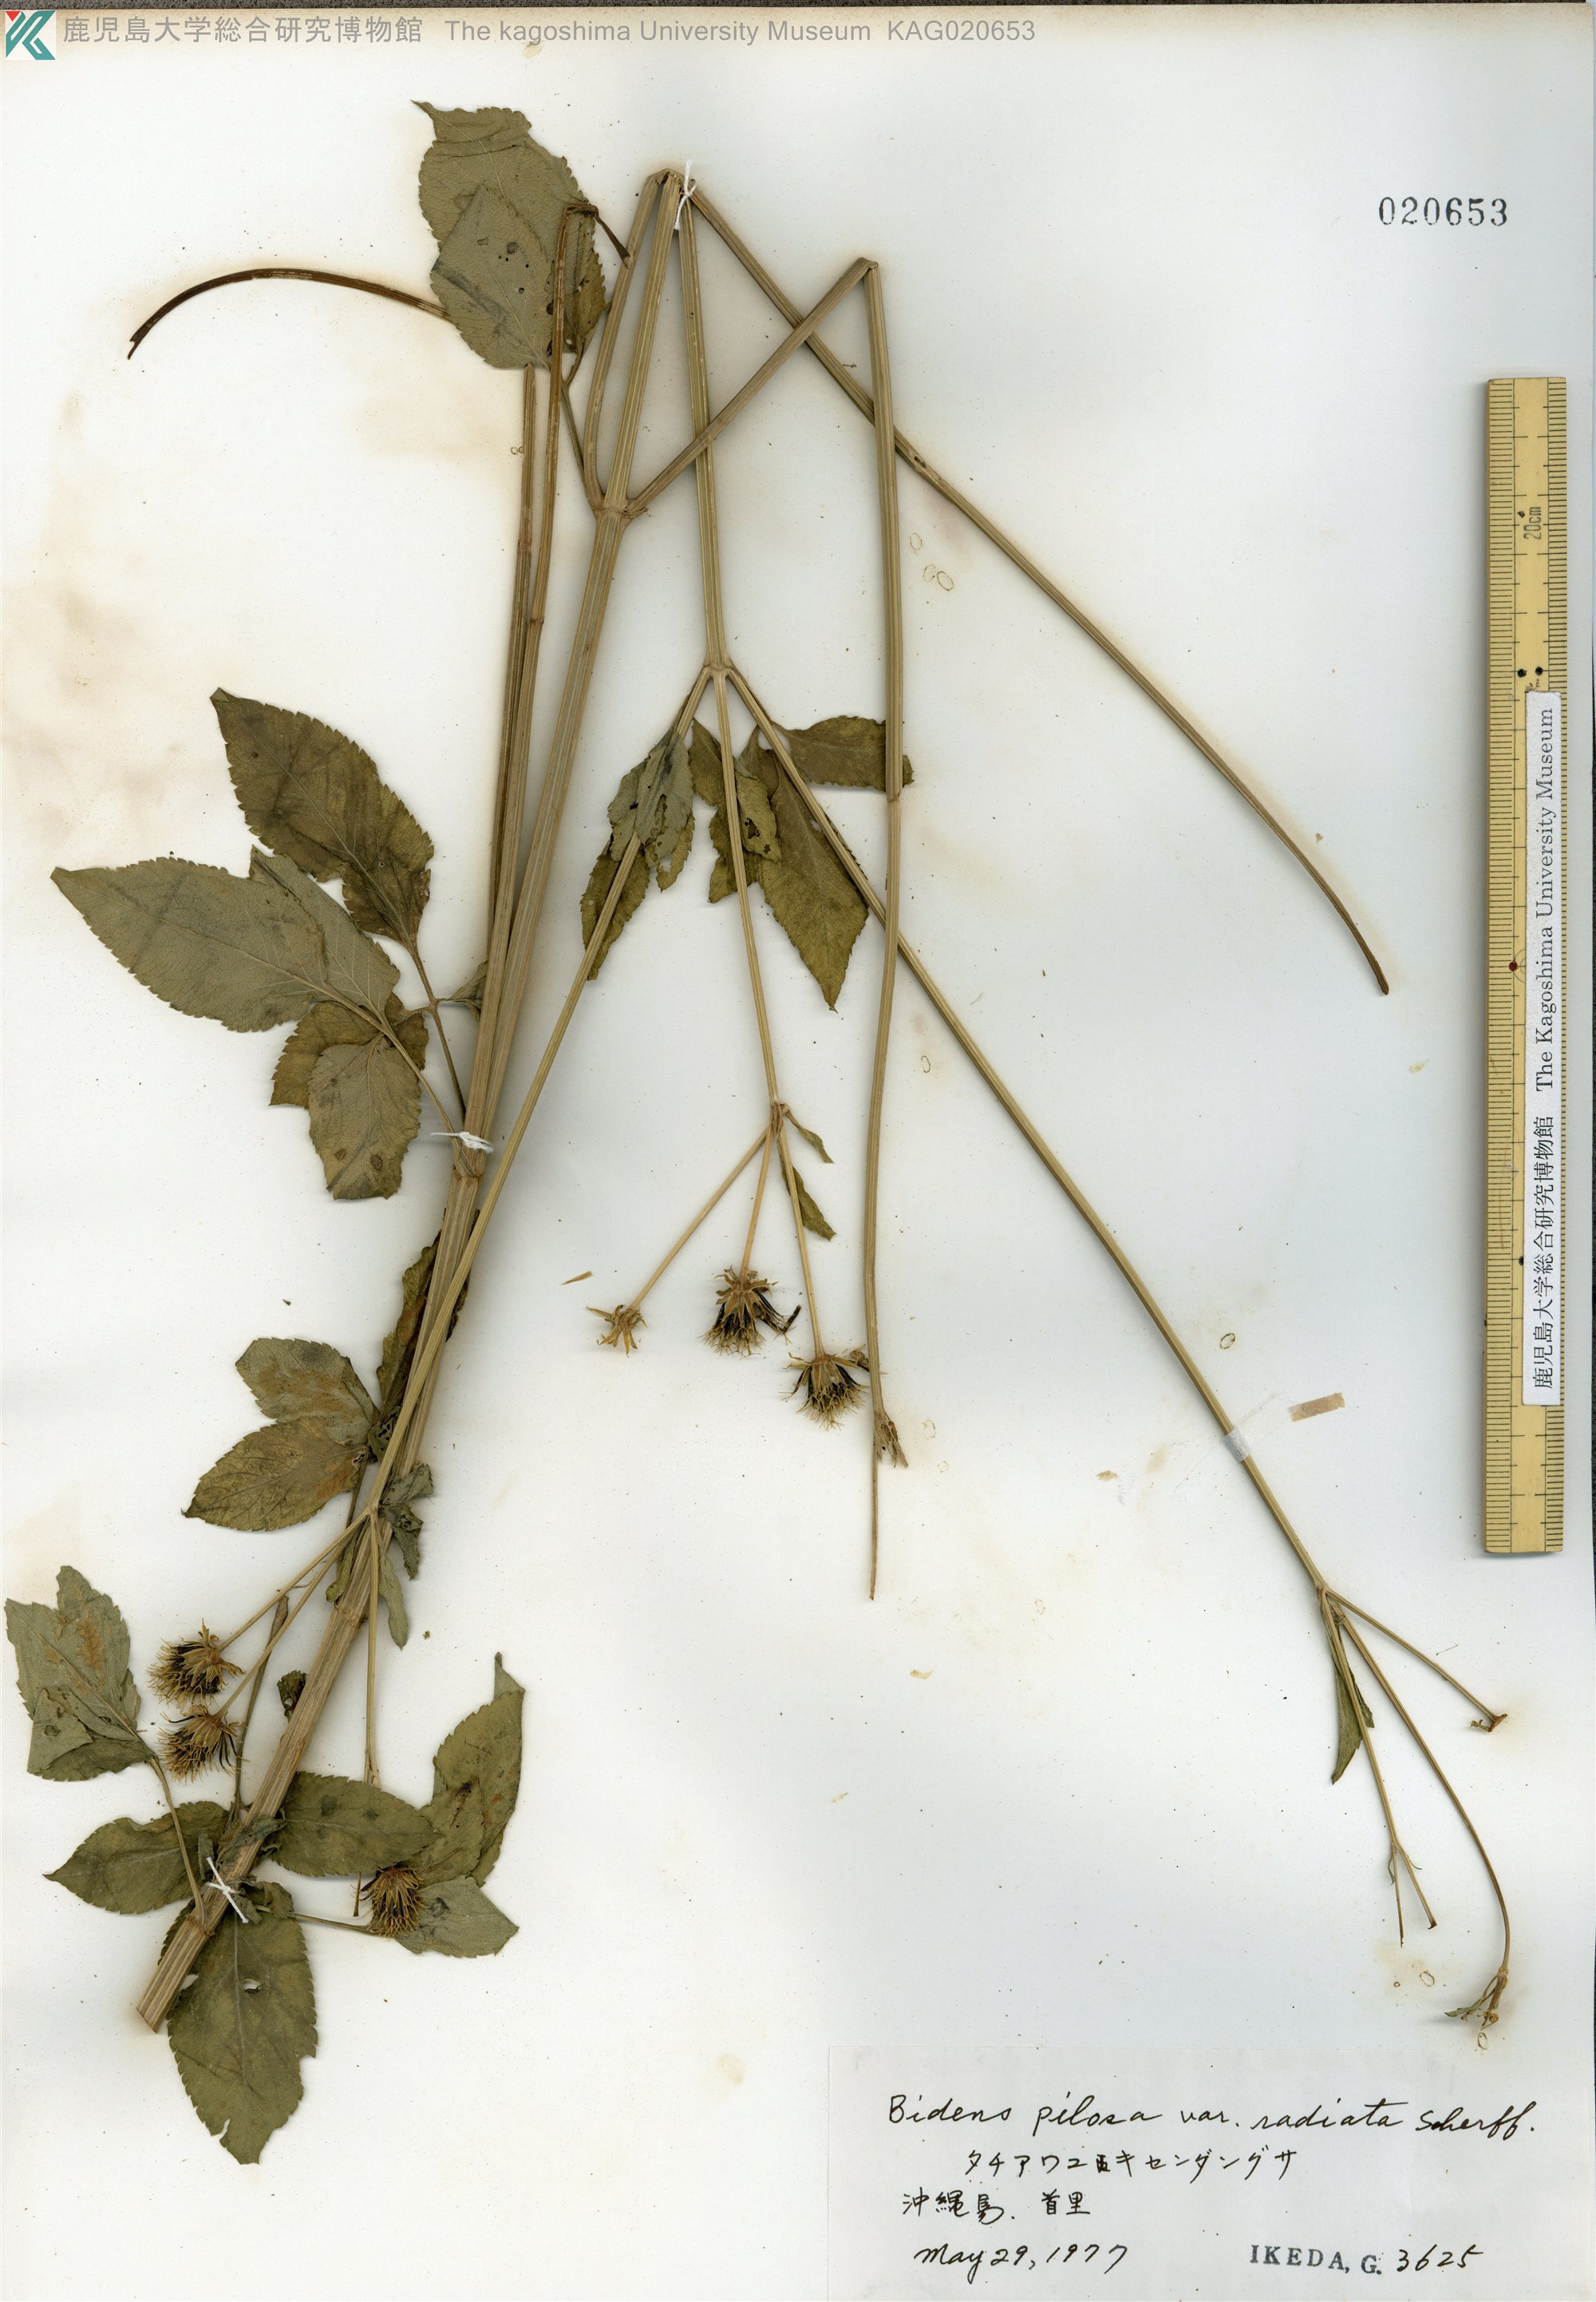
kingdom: Plantae
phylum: Tracheophyta
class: Magnoliopsida
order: Asterales
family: Asteraceae
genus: Bidens
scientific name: Bidens pilosa
